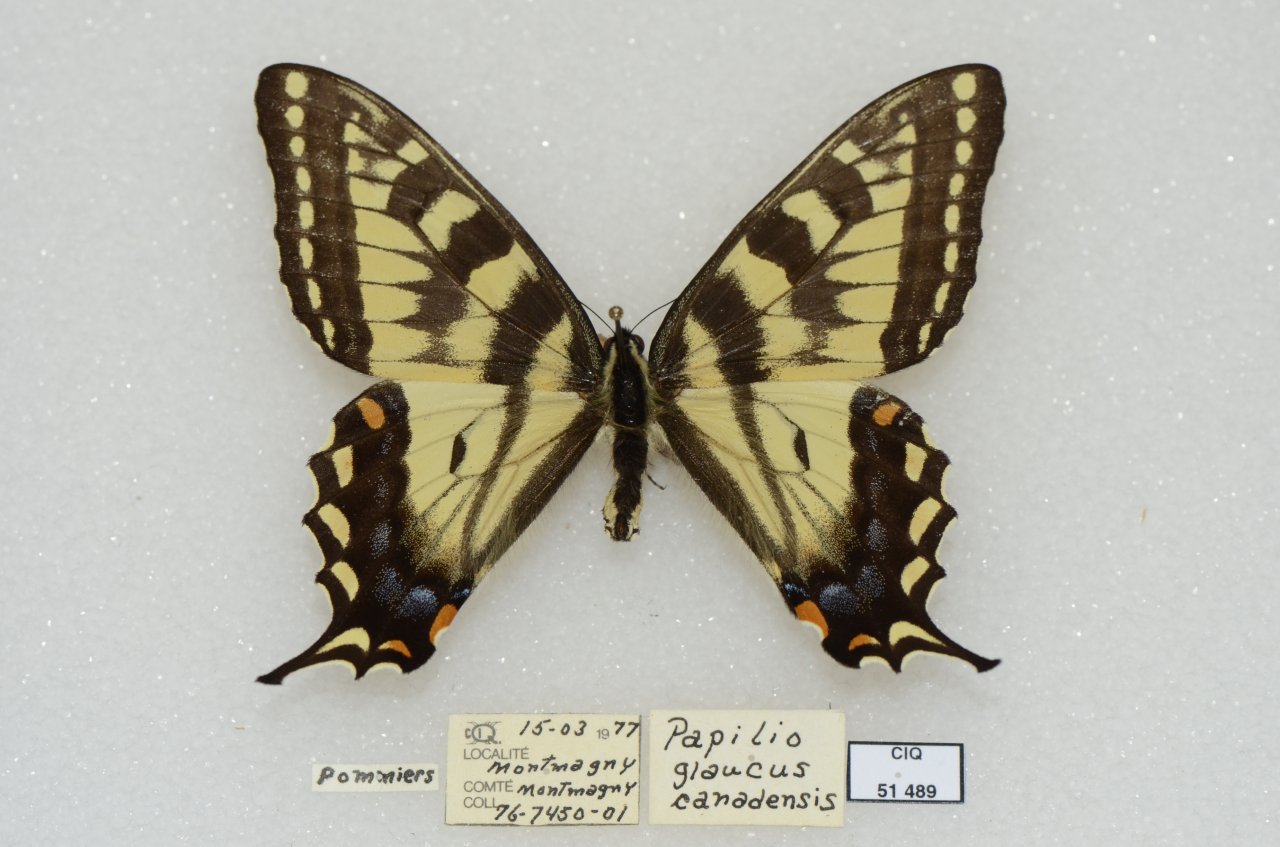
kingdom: Animalia
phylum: Arthropoda
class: Insecta
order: Lepidoptera
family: Papilionidae
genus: Pterourus
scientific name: Pterourus canadensis
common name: Canadian Tiger Swallowtail
